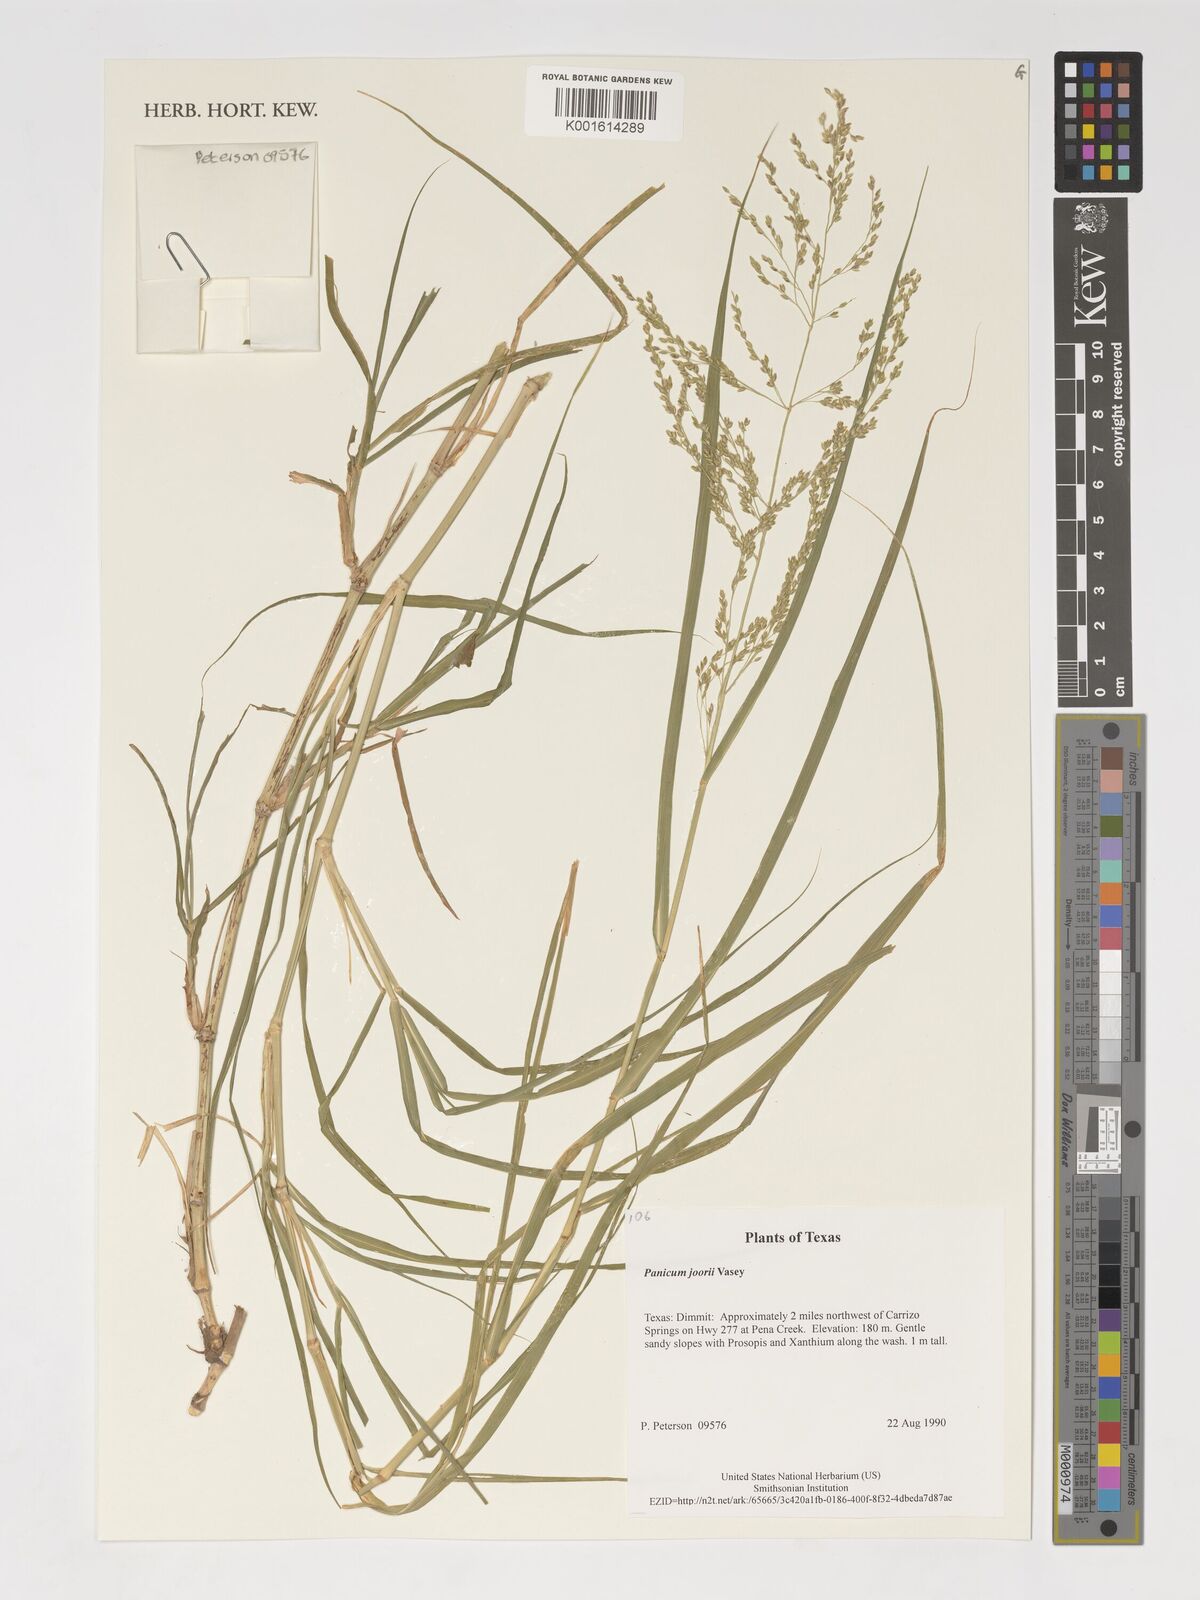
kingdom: Plantae
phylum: Tracheophyta
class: Liliopsida
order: Poales
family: Poaceae
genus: Dichanthelium
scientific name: Dichanthelium commutatum
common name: Variable witchgrass
